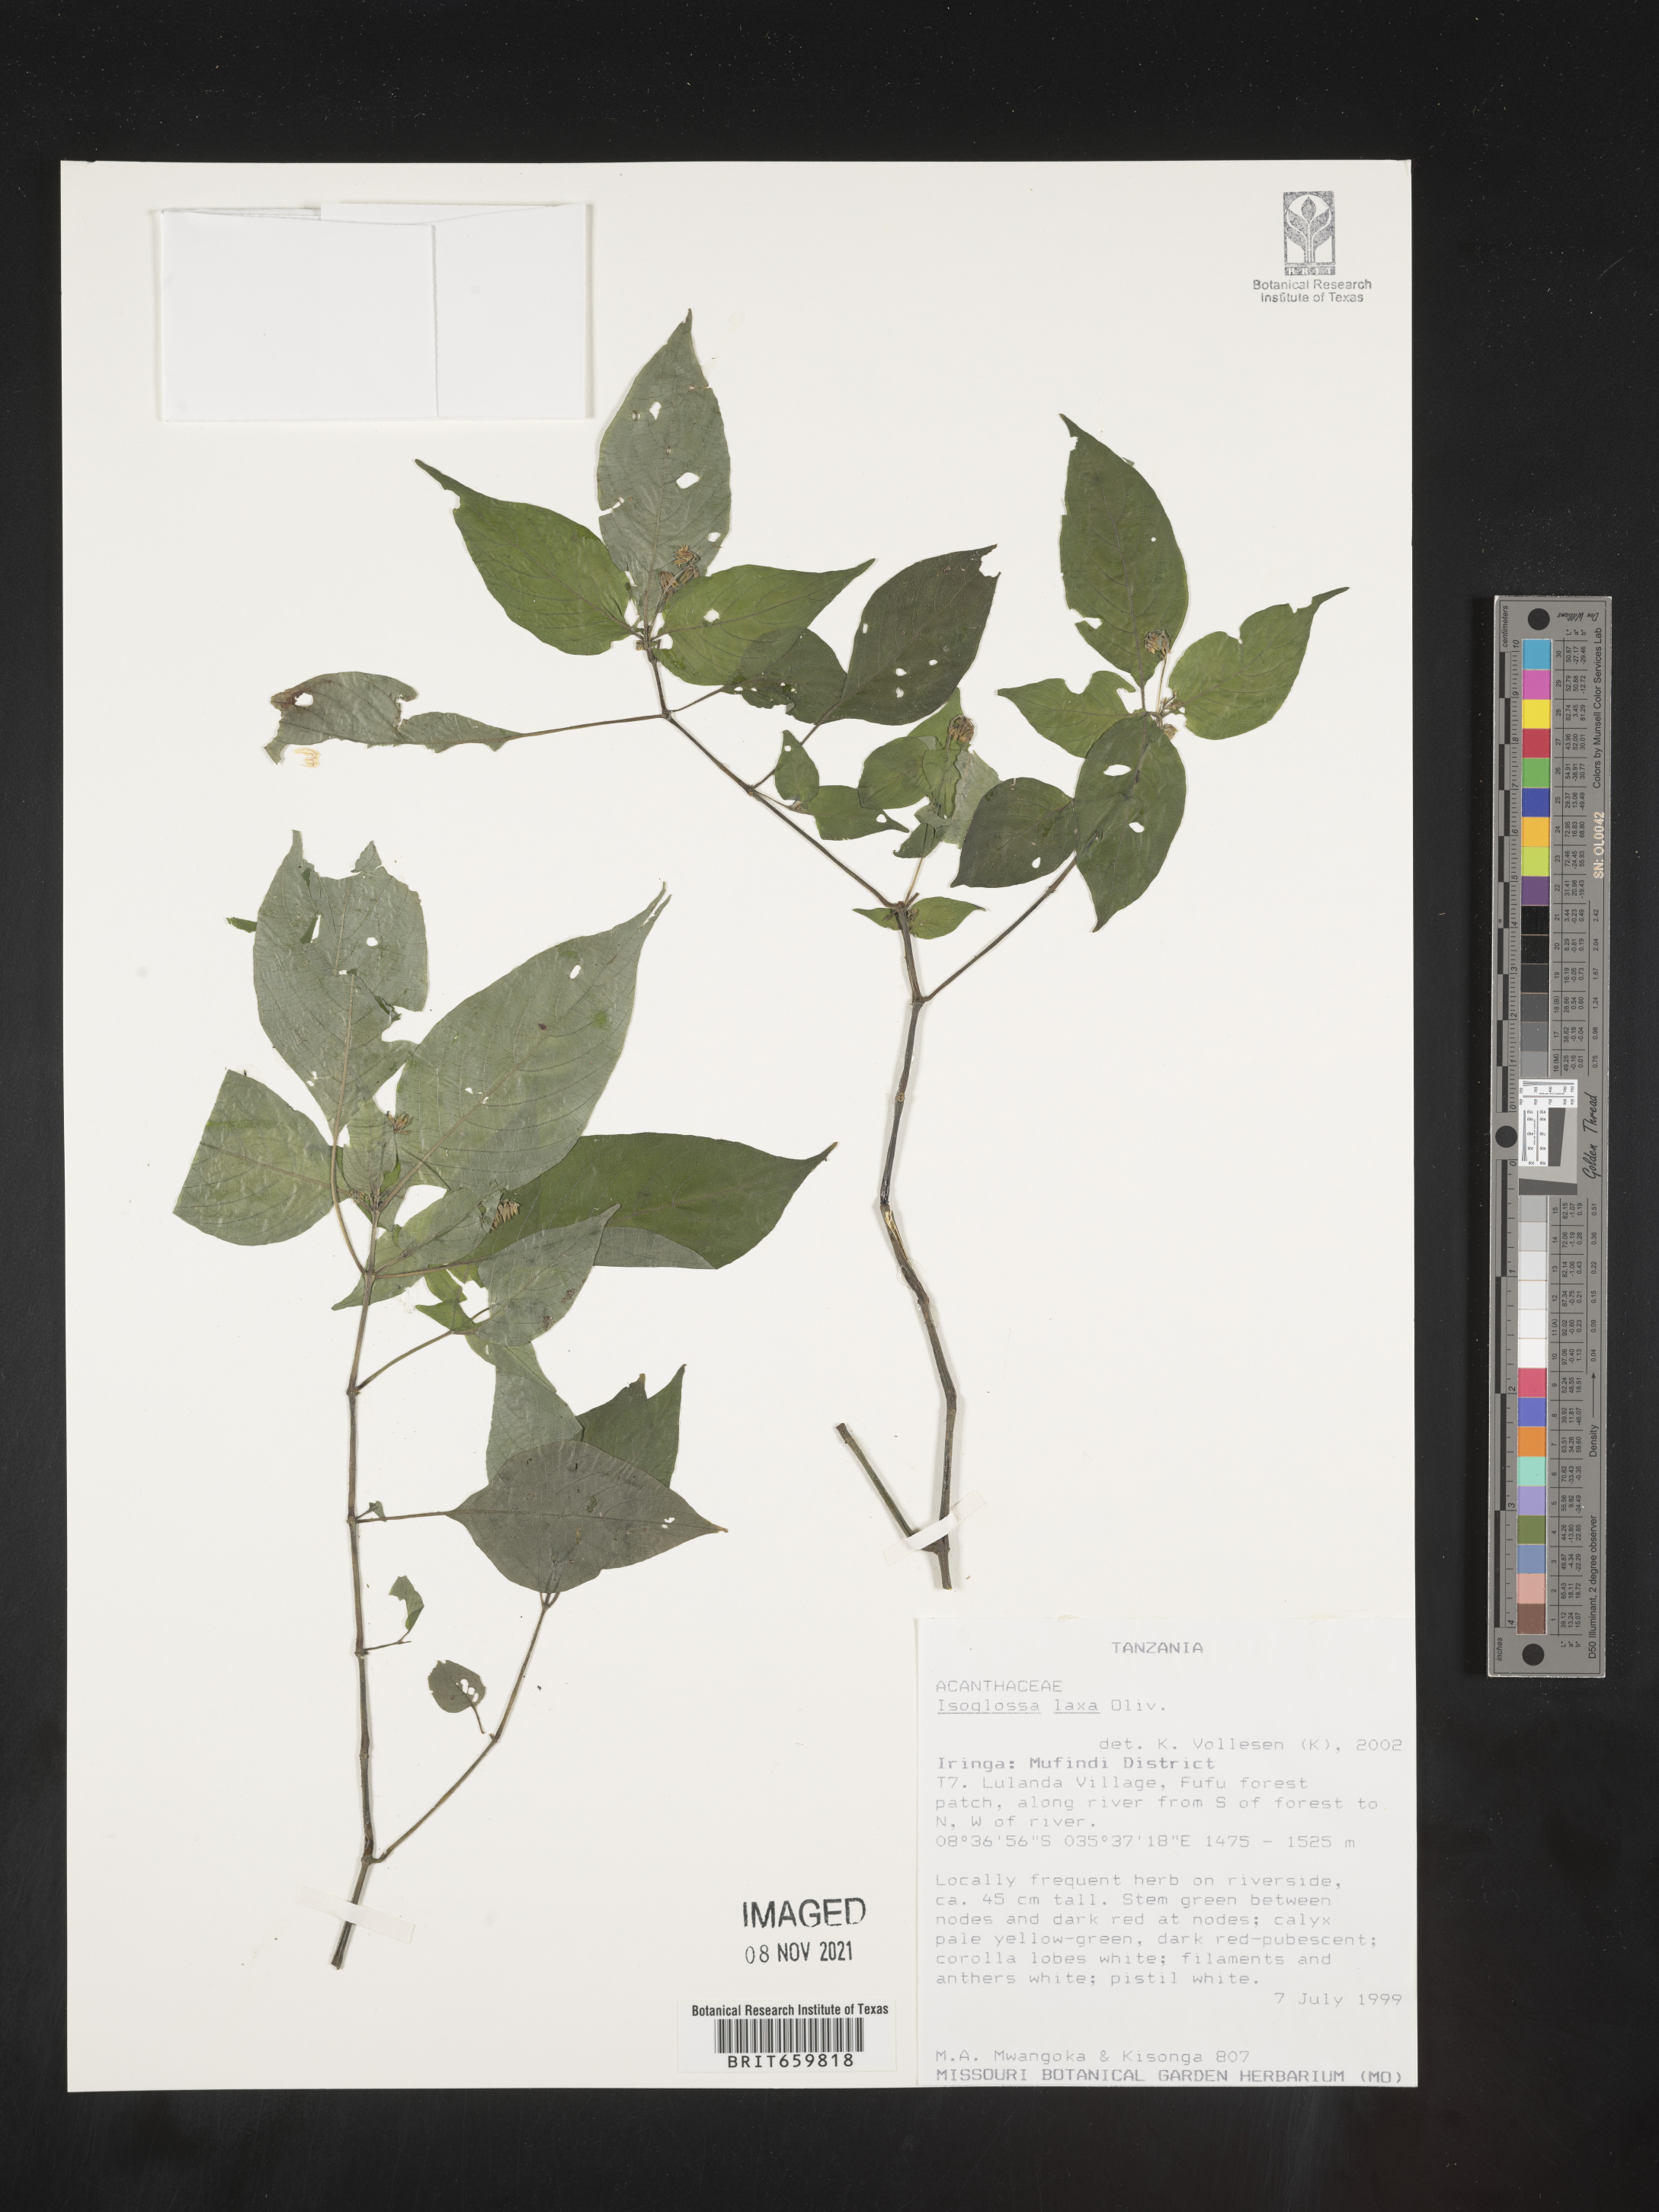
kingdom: Plantae
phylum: Tracheophyta
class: Magnoliopsida
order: Lamiales
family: Acanthaceae
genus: Isoglossa
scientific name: Isoglossa laxa
